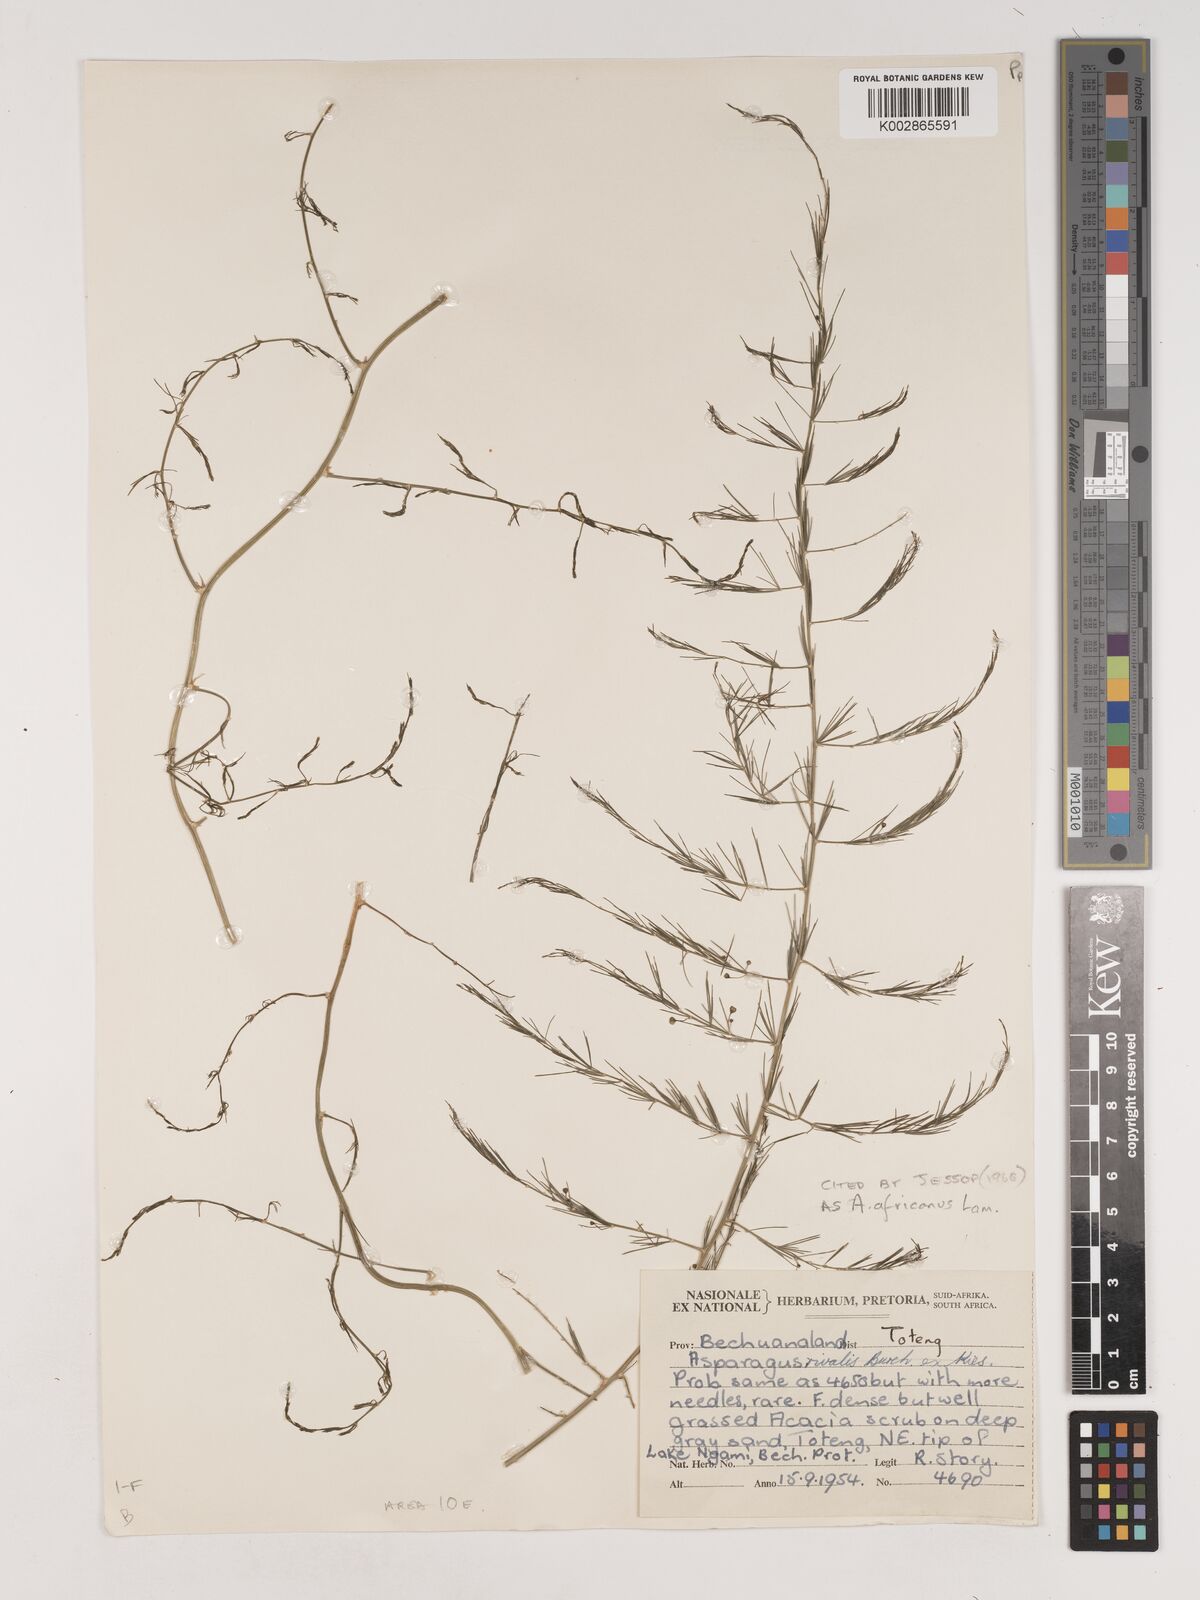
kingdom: Plantae
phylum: Tracheophyta
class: Liliopsida
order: Asparagales
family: Asparagaceae
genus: Asparagus
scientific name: Asparagus africanus
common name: Asparagus-fern
